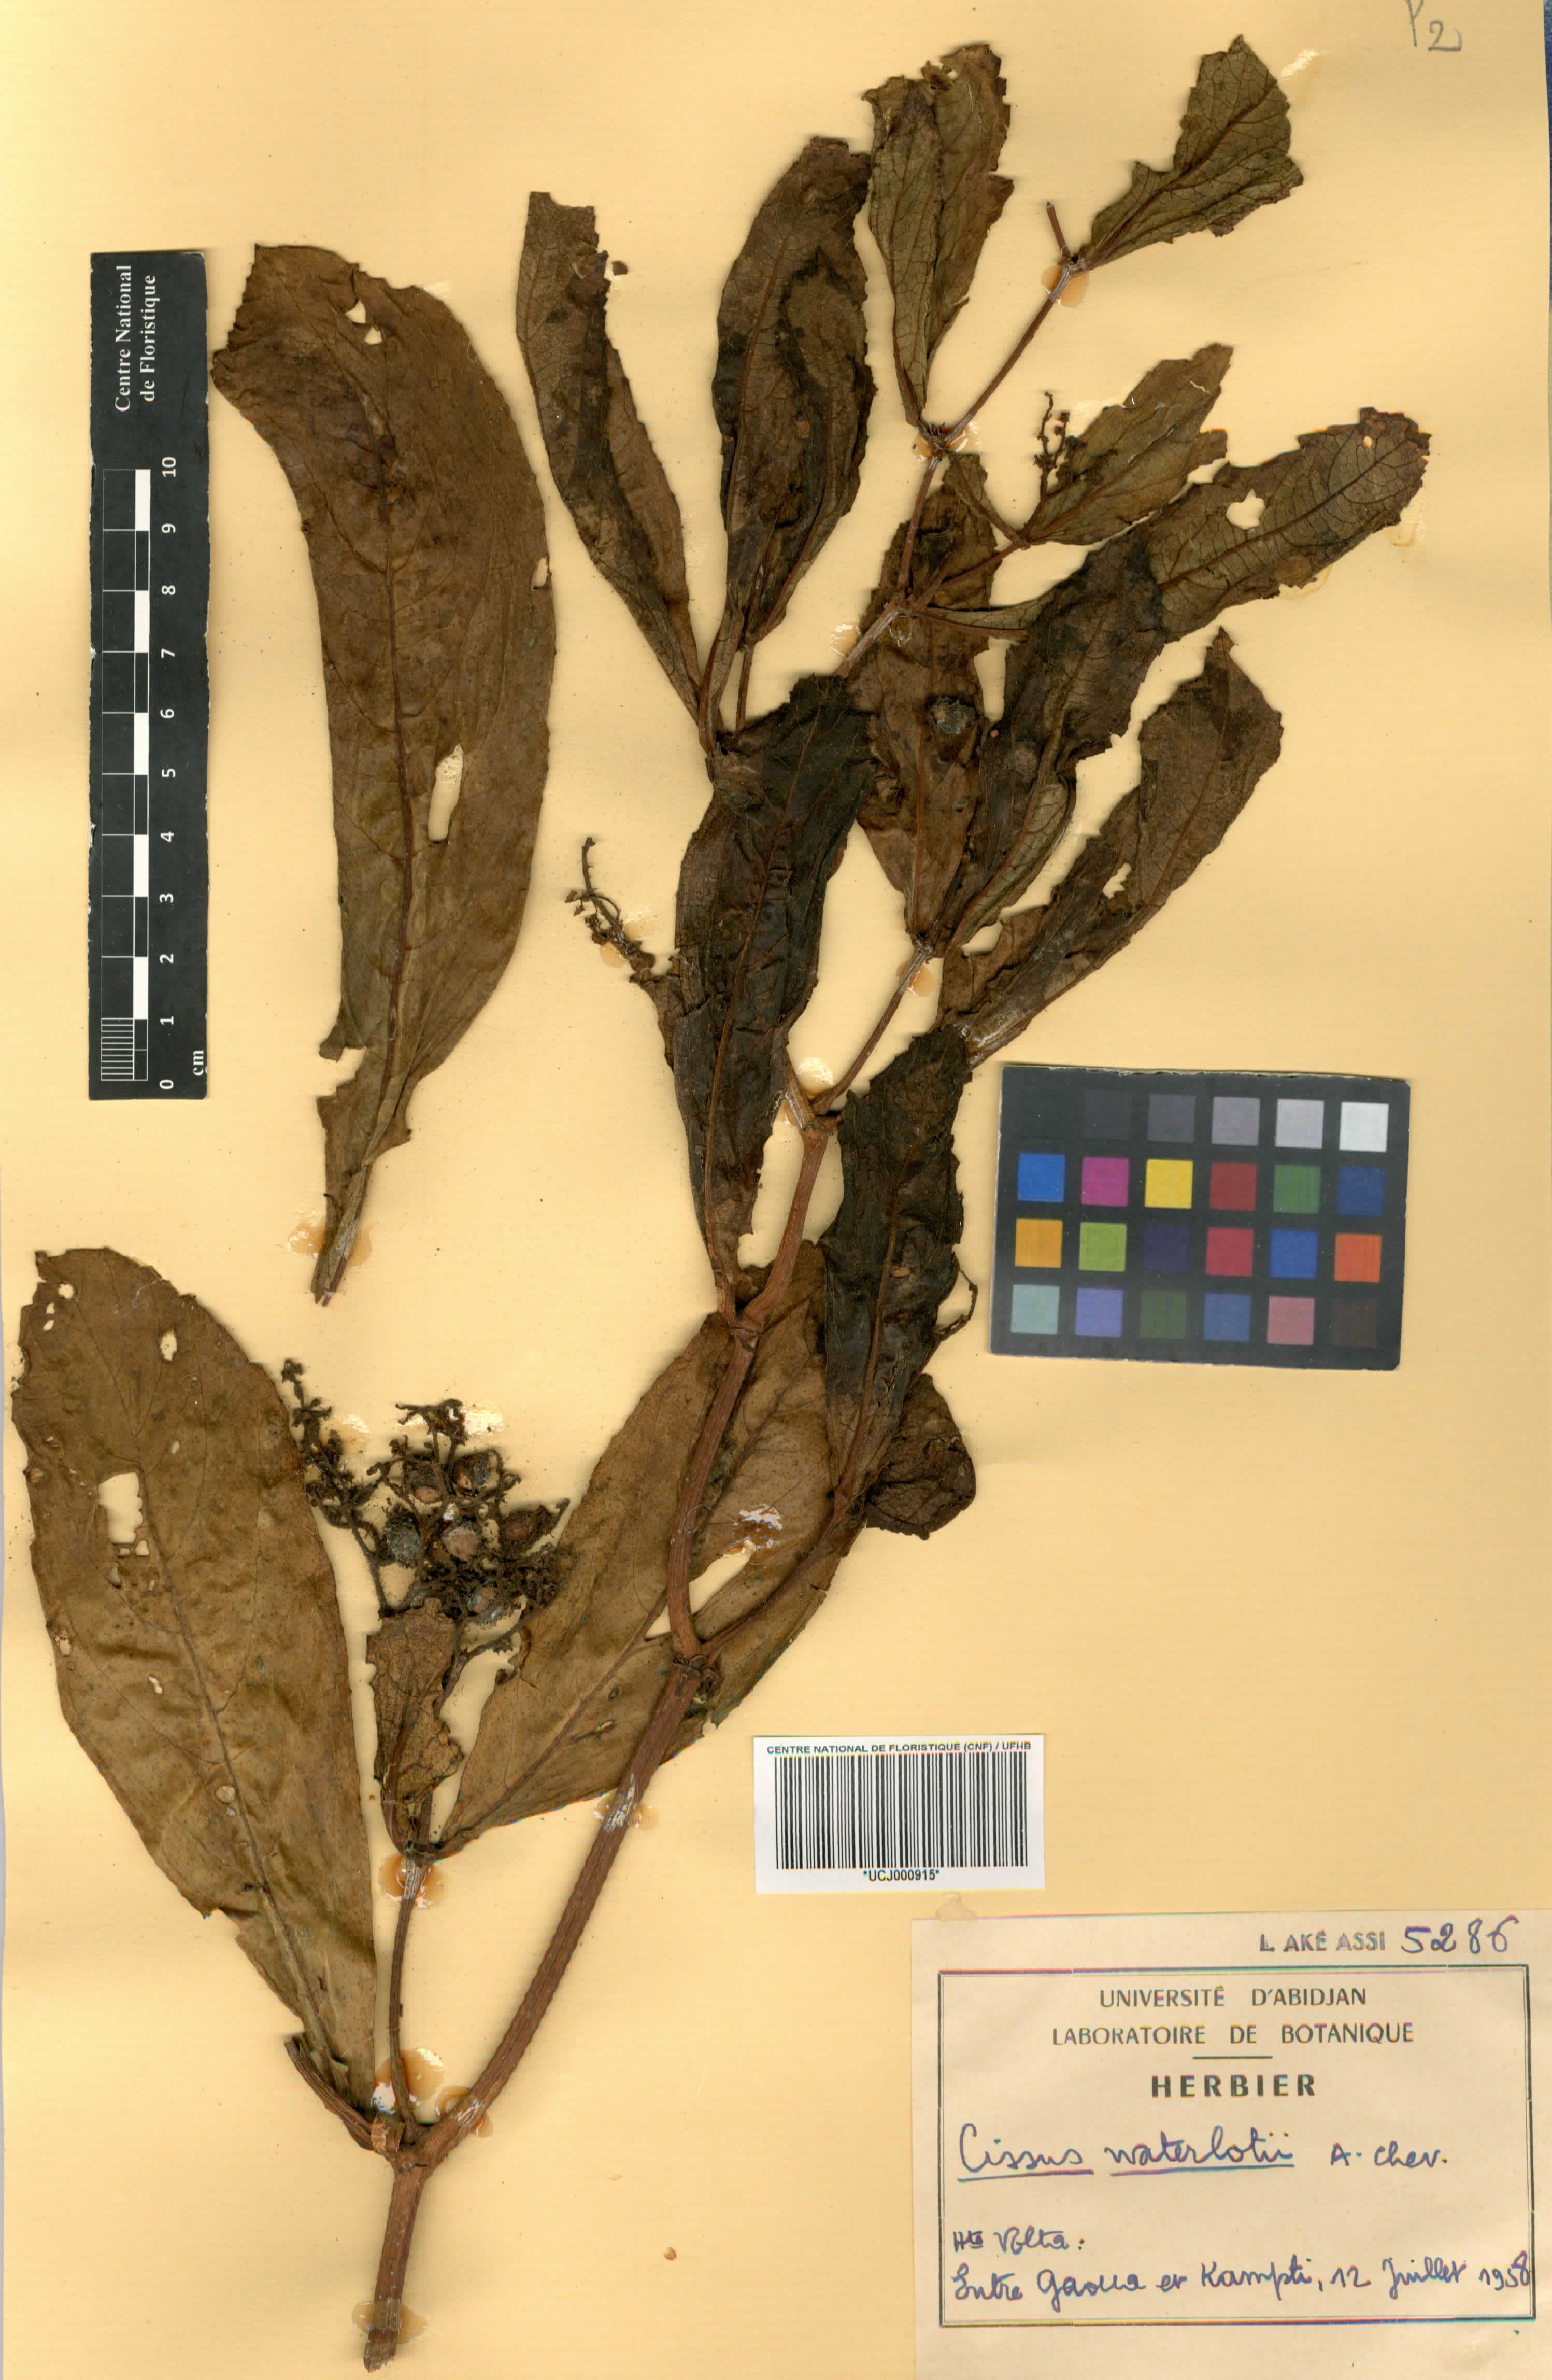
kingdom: Plantae
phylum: Tracheophyta
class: Magnoliopsida
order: Vitales
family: Vitaceae
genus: Cyphostemma
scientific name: Cyphostemma waterlotii
